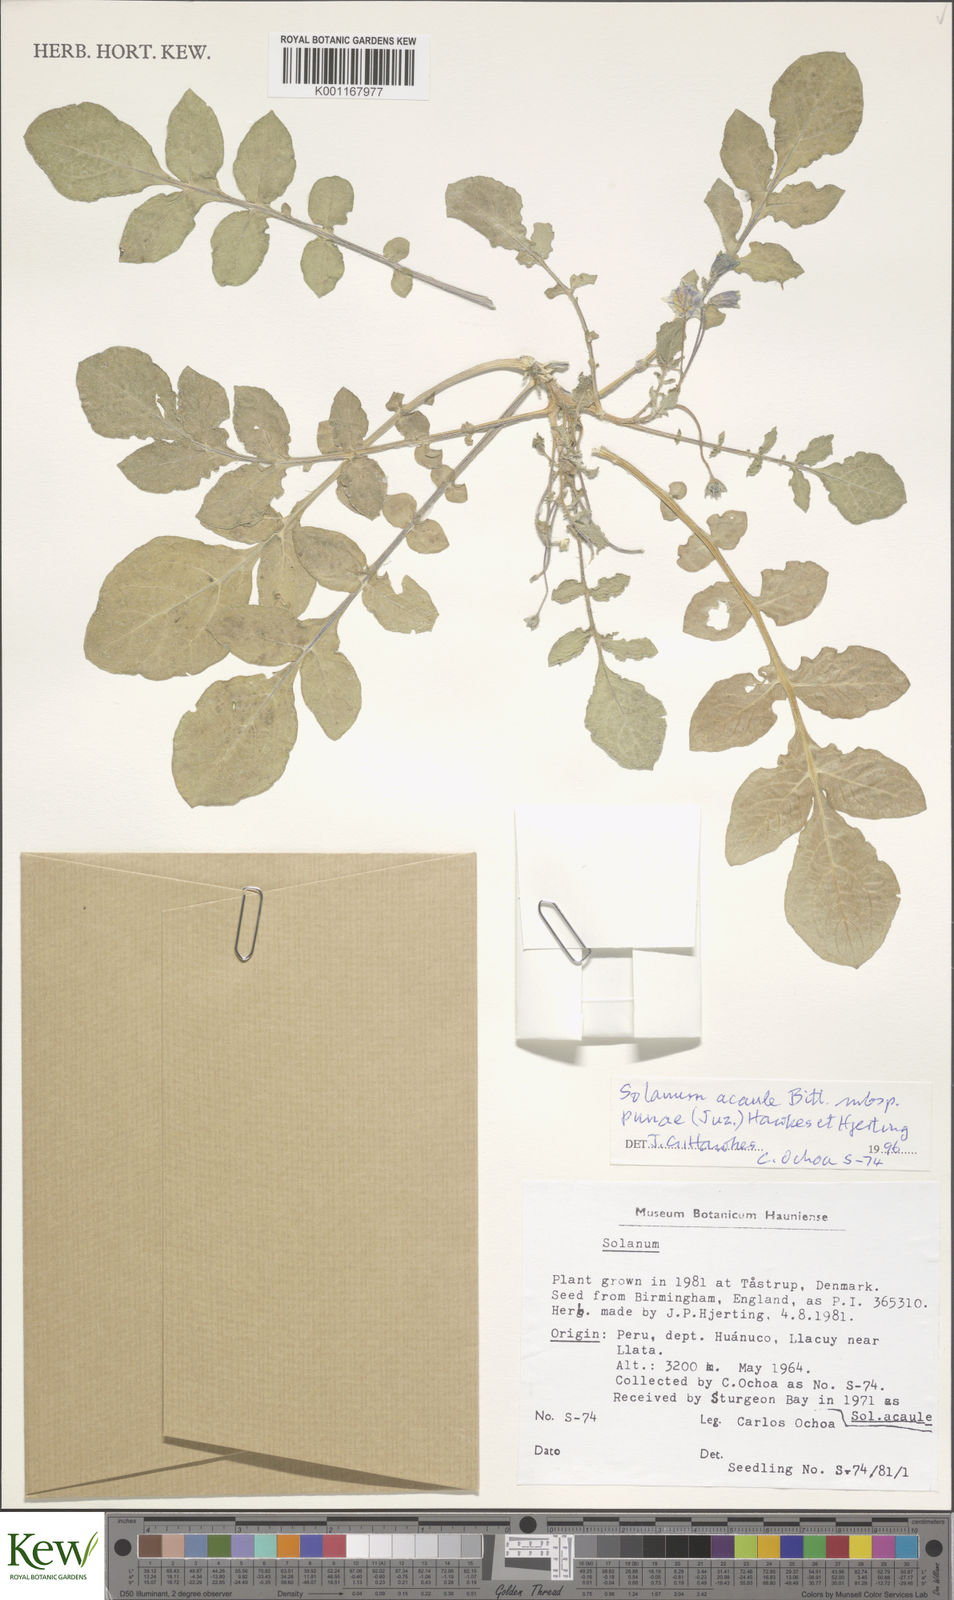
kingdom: Plantae
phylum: Tracheophyta
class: Magnoliopsida
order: Solanales
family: Solanaceae
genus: Solanum
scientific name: Solanum acaule
